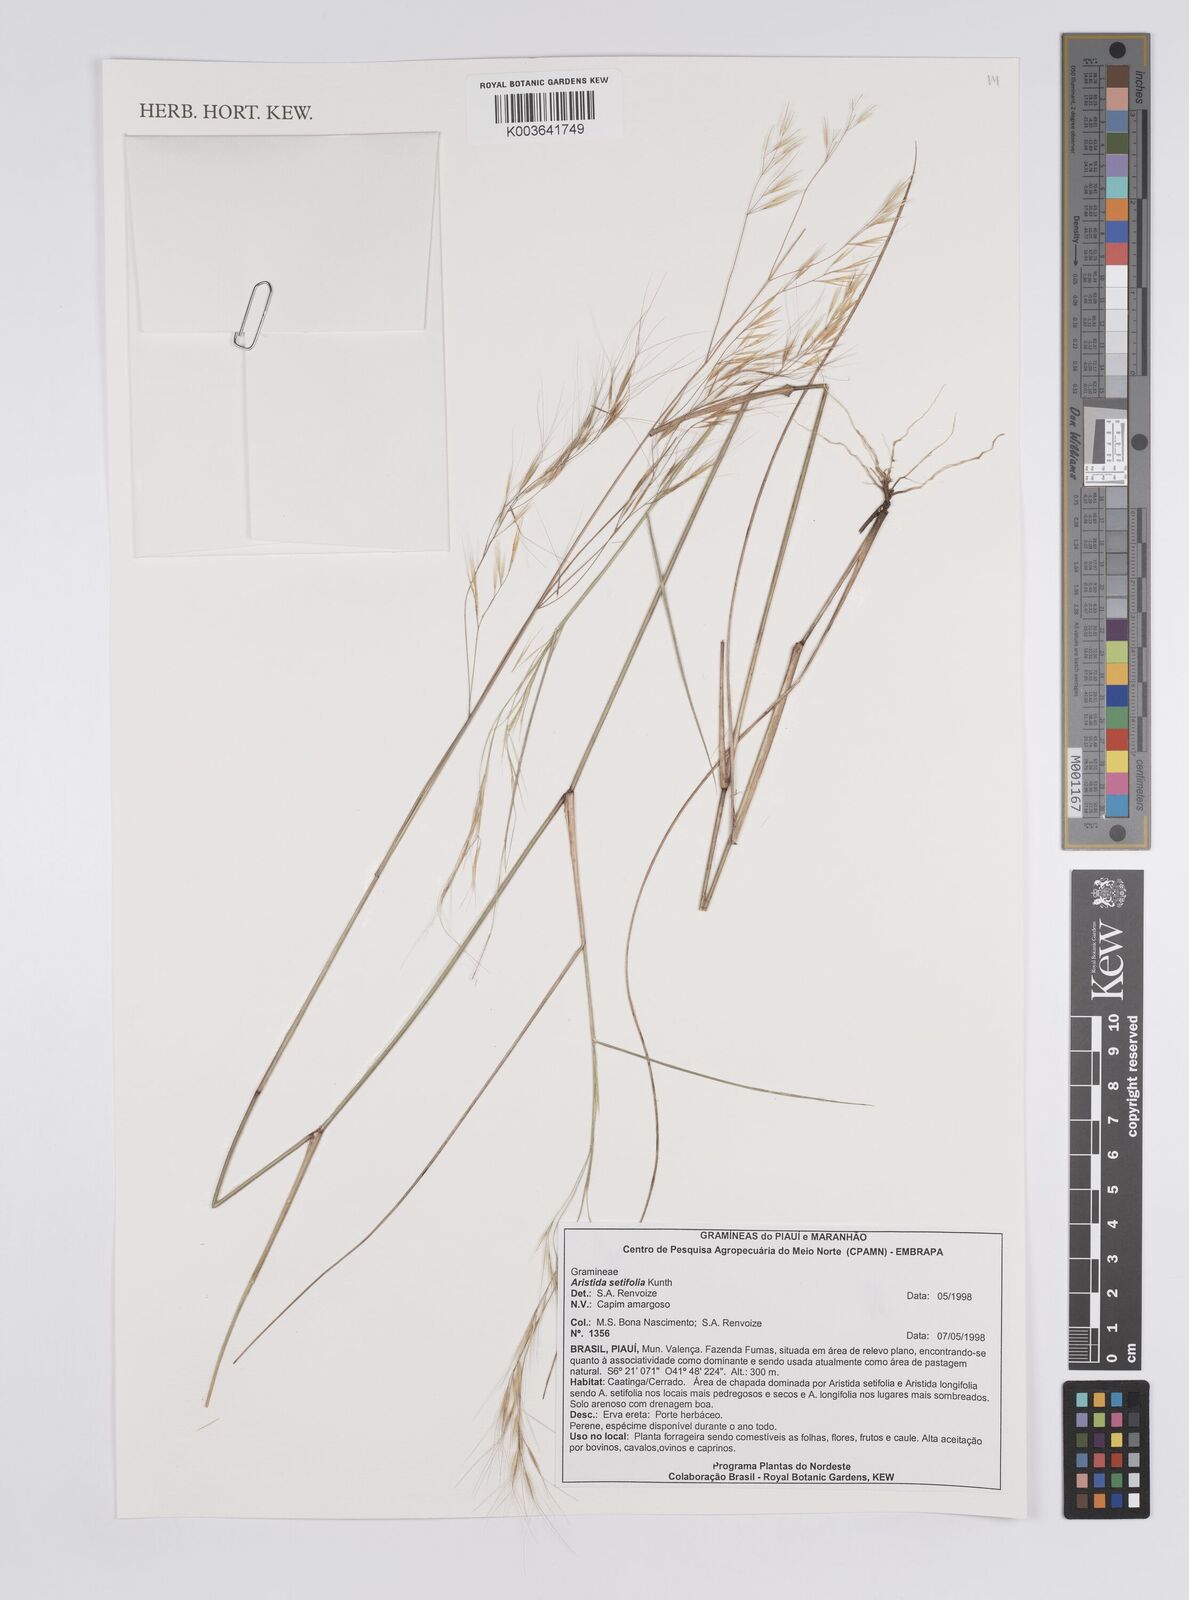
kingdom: Plantae
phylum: Tracheophyta
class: Liliopsida
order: Poales
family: Poaceae
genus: Aristida
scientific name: Aristida setifolia
